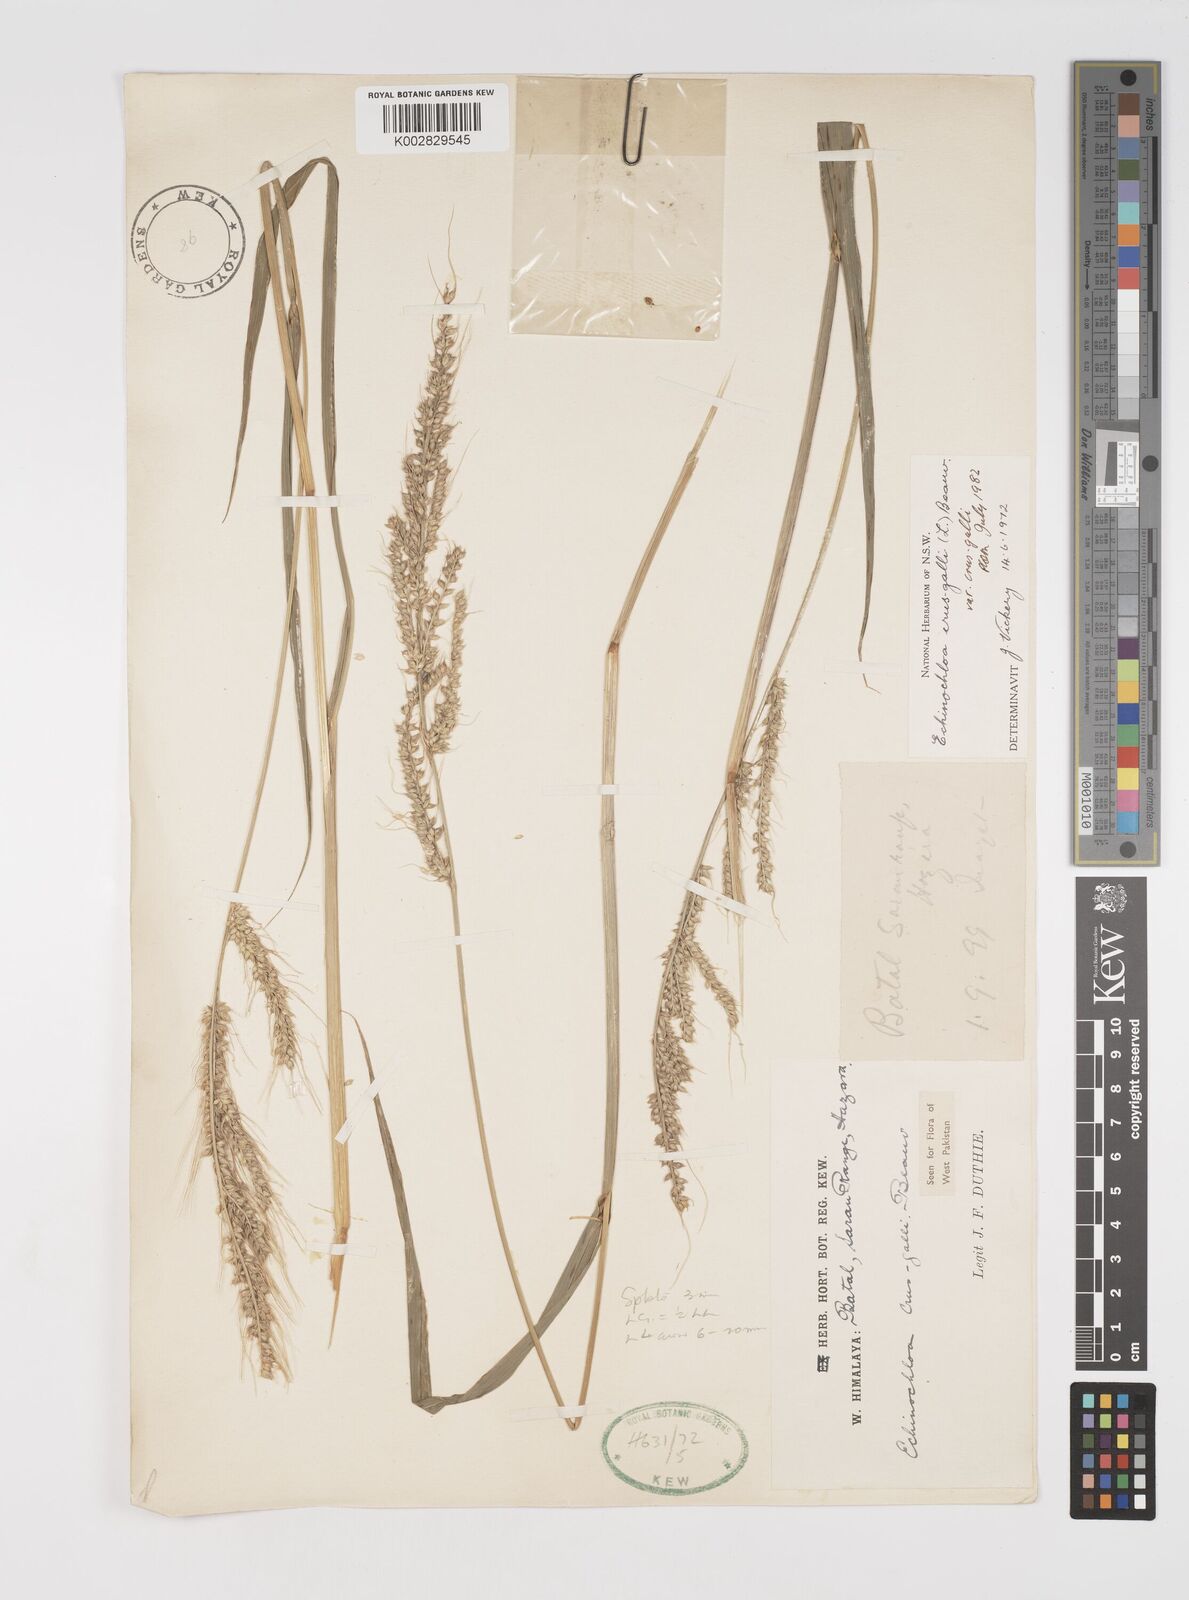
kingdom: Plantae
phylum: Tracheophyta
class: Liliopsida
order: Poales
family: Poaceae
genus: Echinochloa
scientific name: Echinochloa crus-galli
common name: Cockspur
